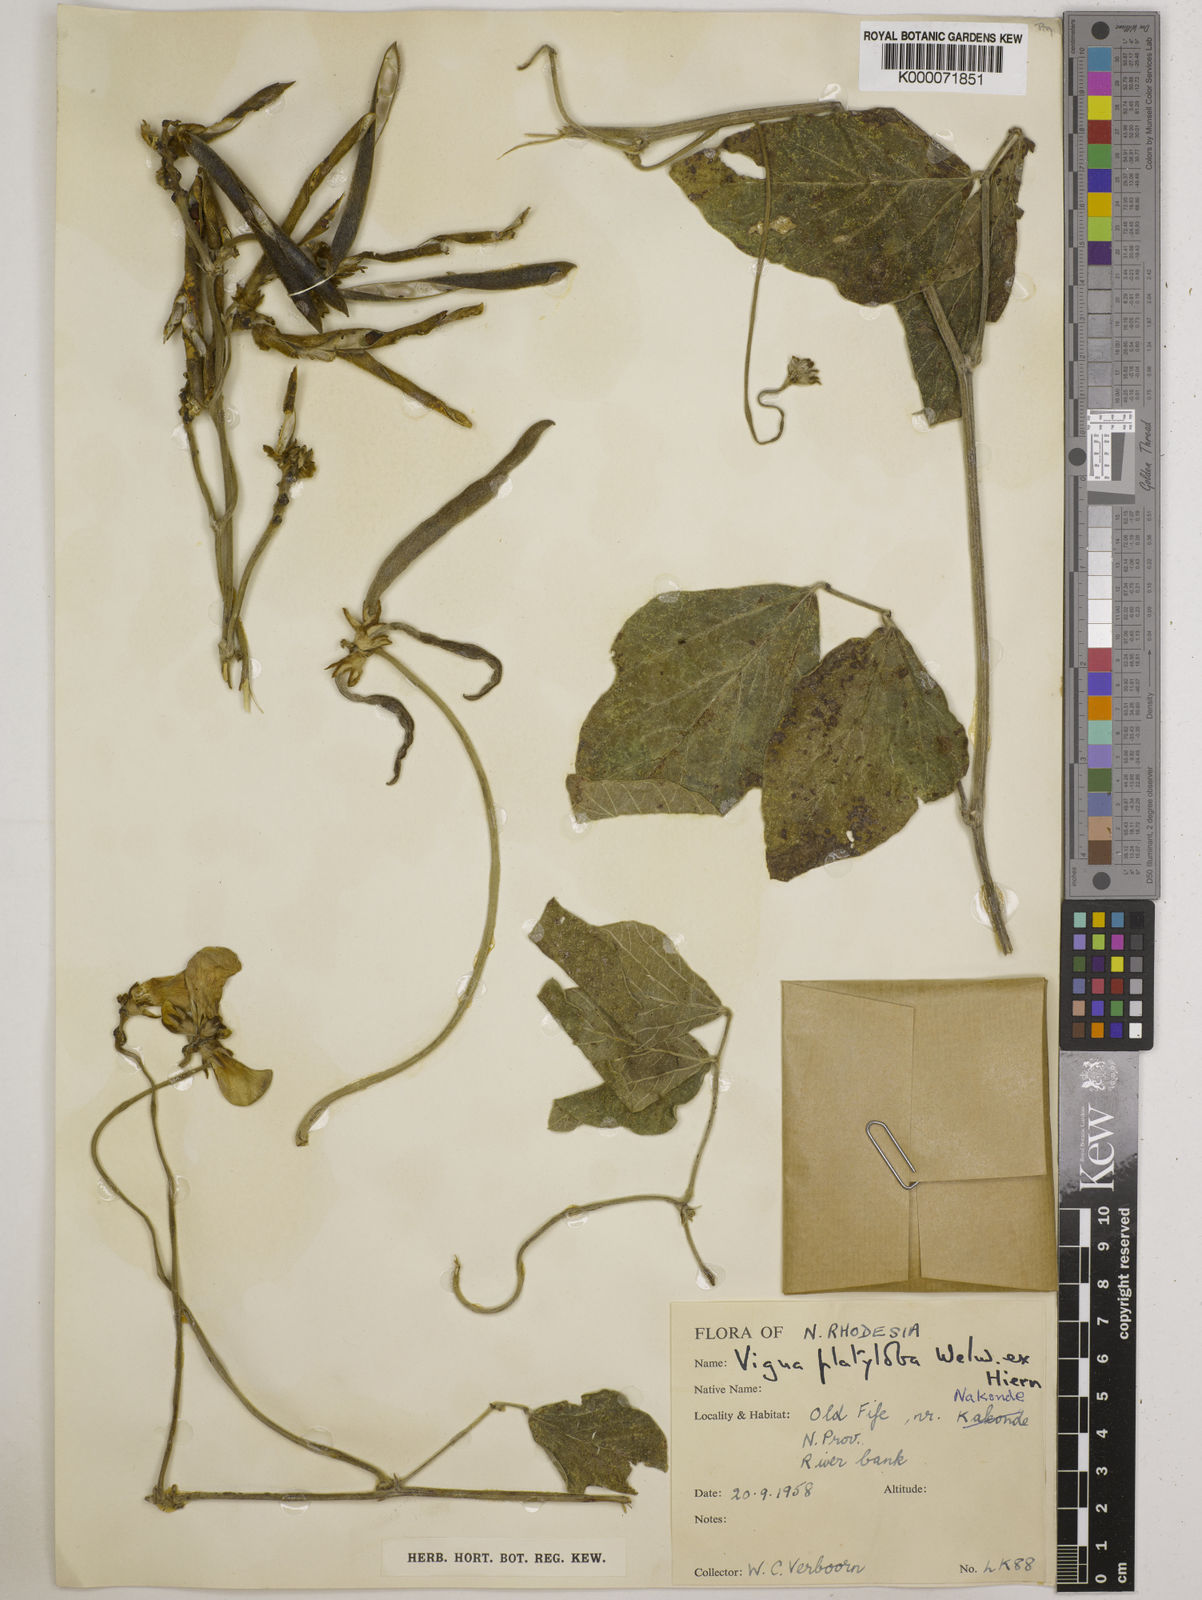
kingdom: Plantae
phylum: Tracheophyta
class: Magnoliopsida
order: Fabales
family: Fabaceae
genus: Vigna
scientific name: Vigna platyloba
